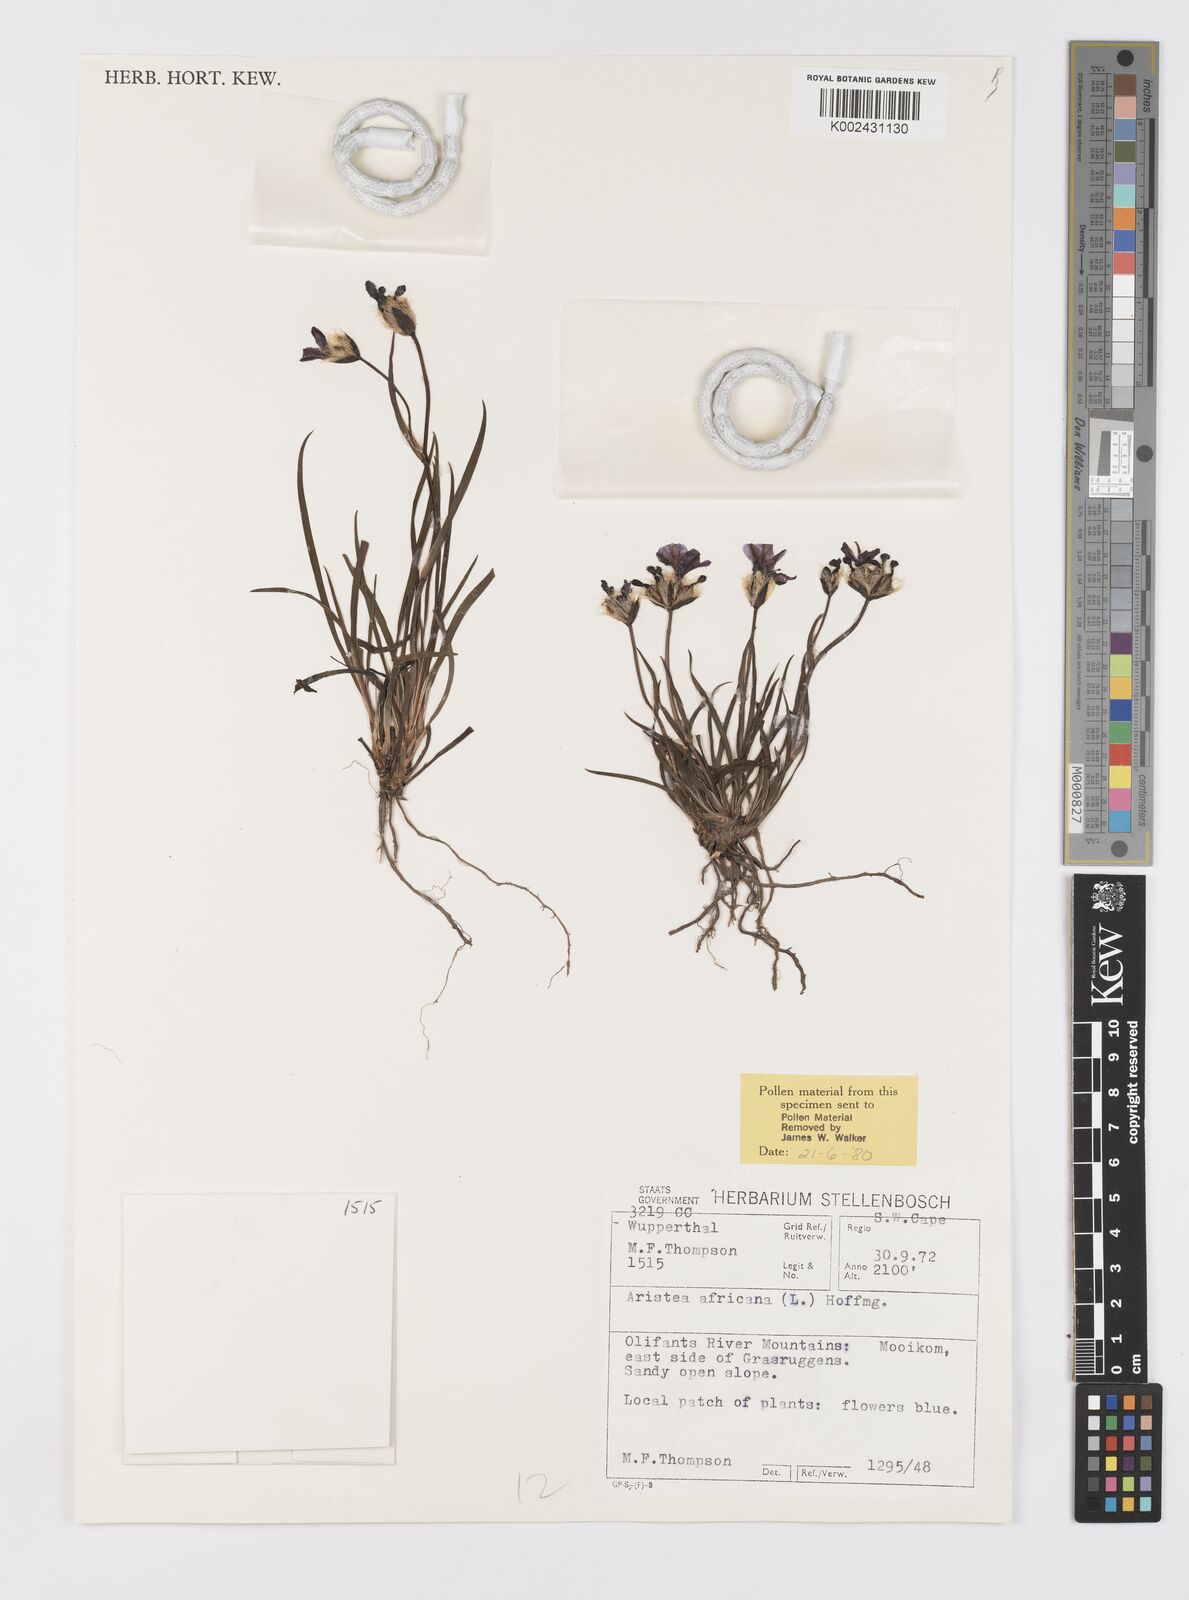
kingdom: Plantae
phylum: Tracheophyta
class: Liliopsida
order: Asparagales
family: Iridaceae
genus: Aristea
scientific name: Aristea africana
